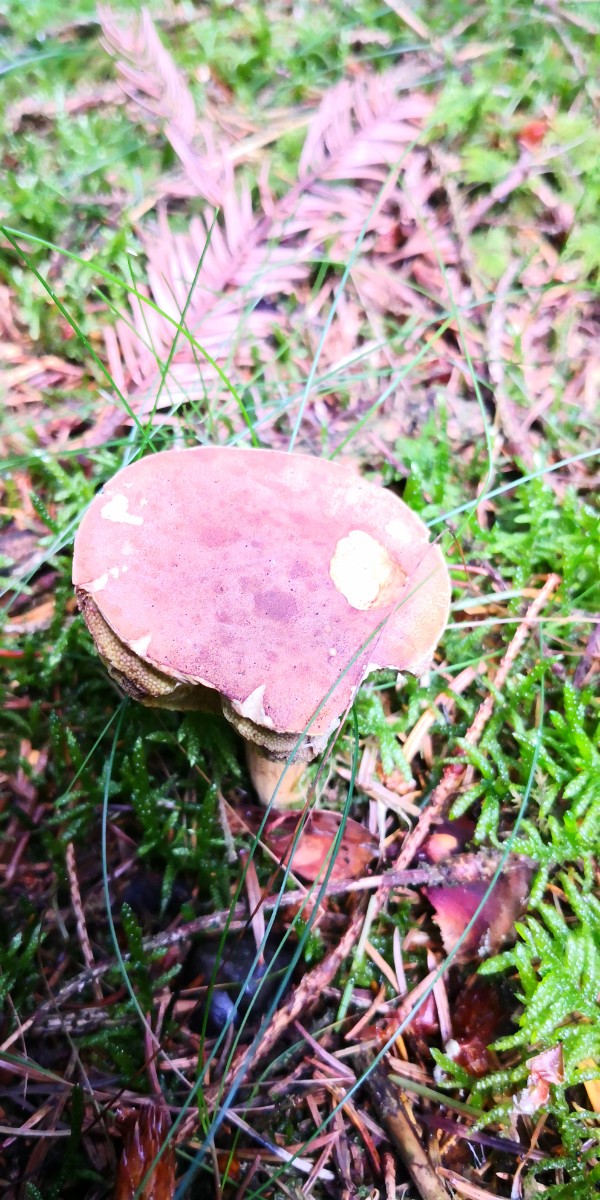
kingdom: Fungi
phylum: Basidiomycota
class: Agaricomycetes
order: Boletales
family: Boletaceae
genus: Imleria
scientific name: Imleria badia
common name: brunstokket rørhat
